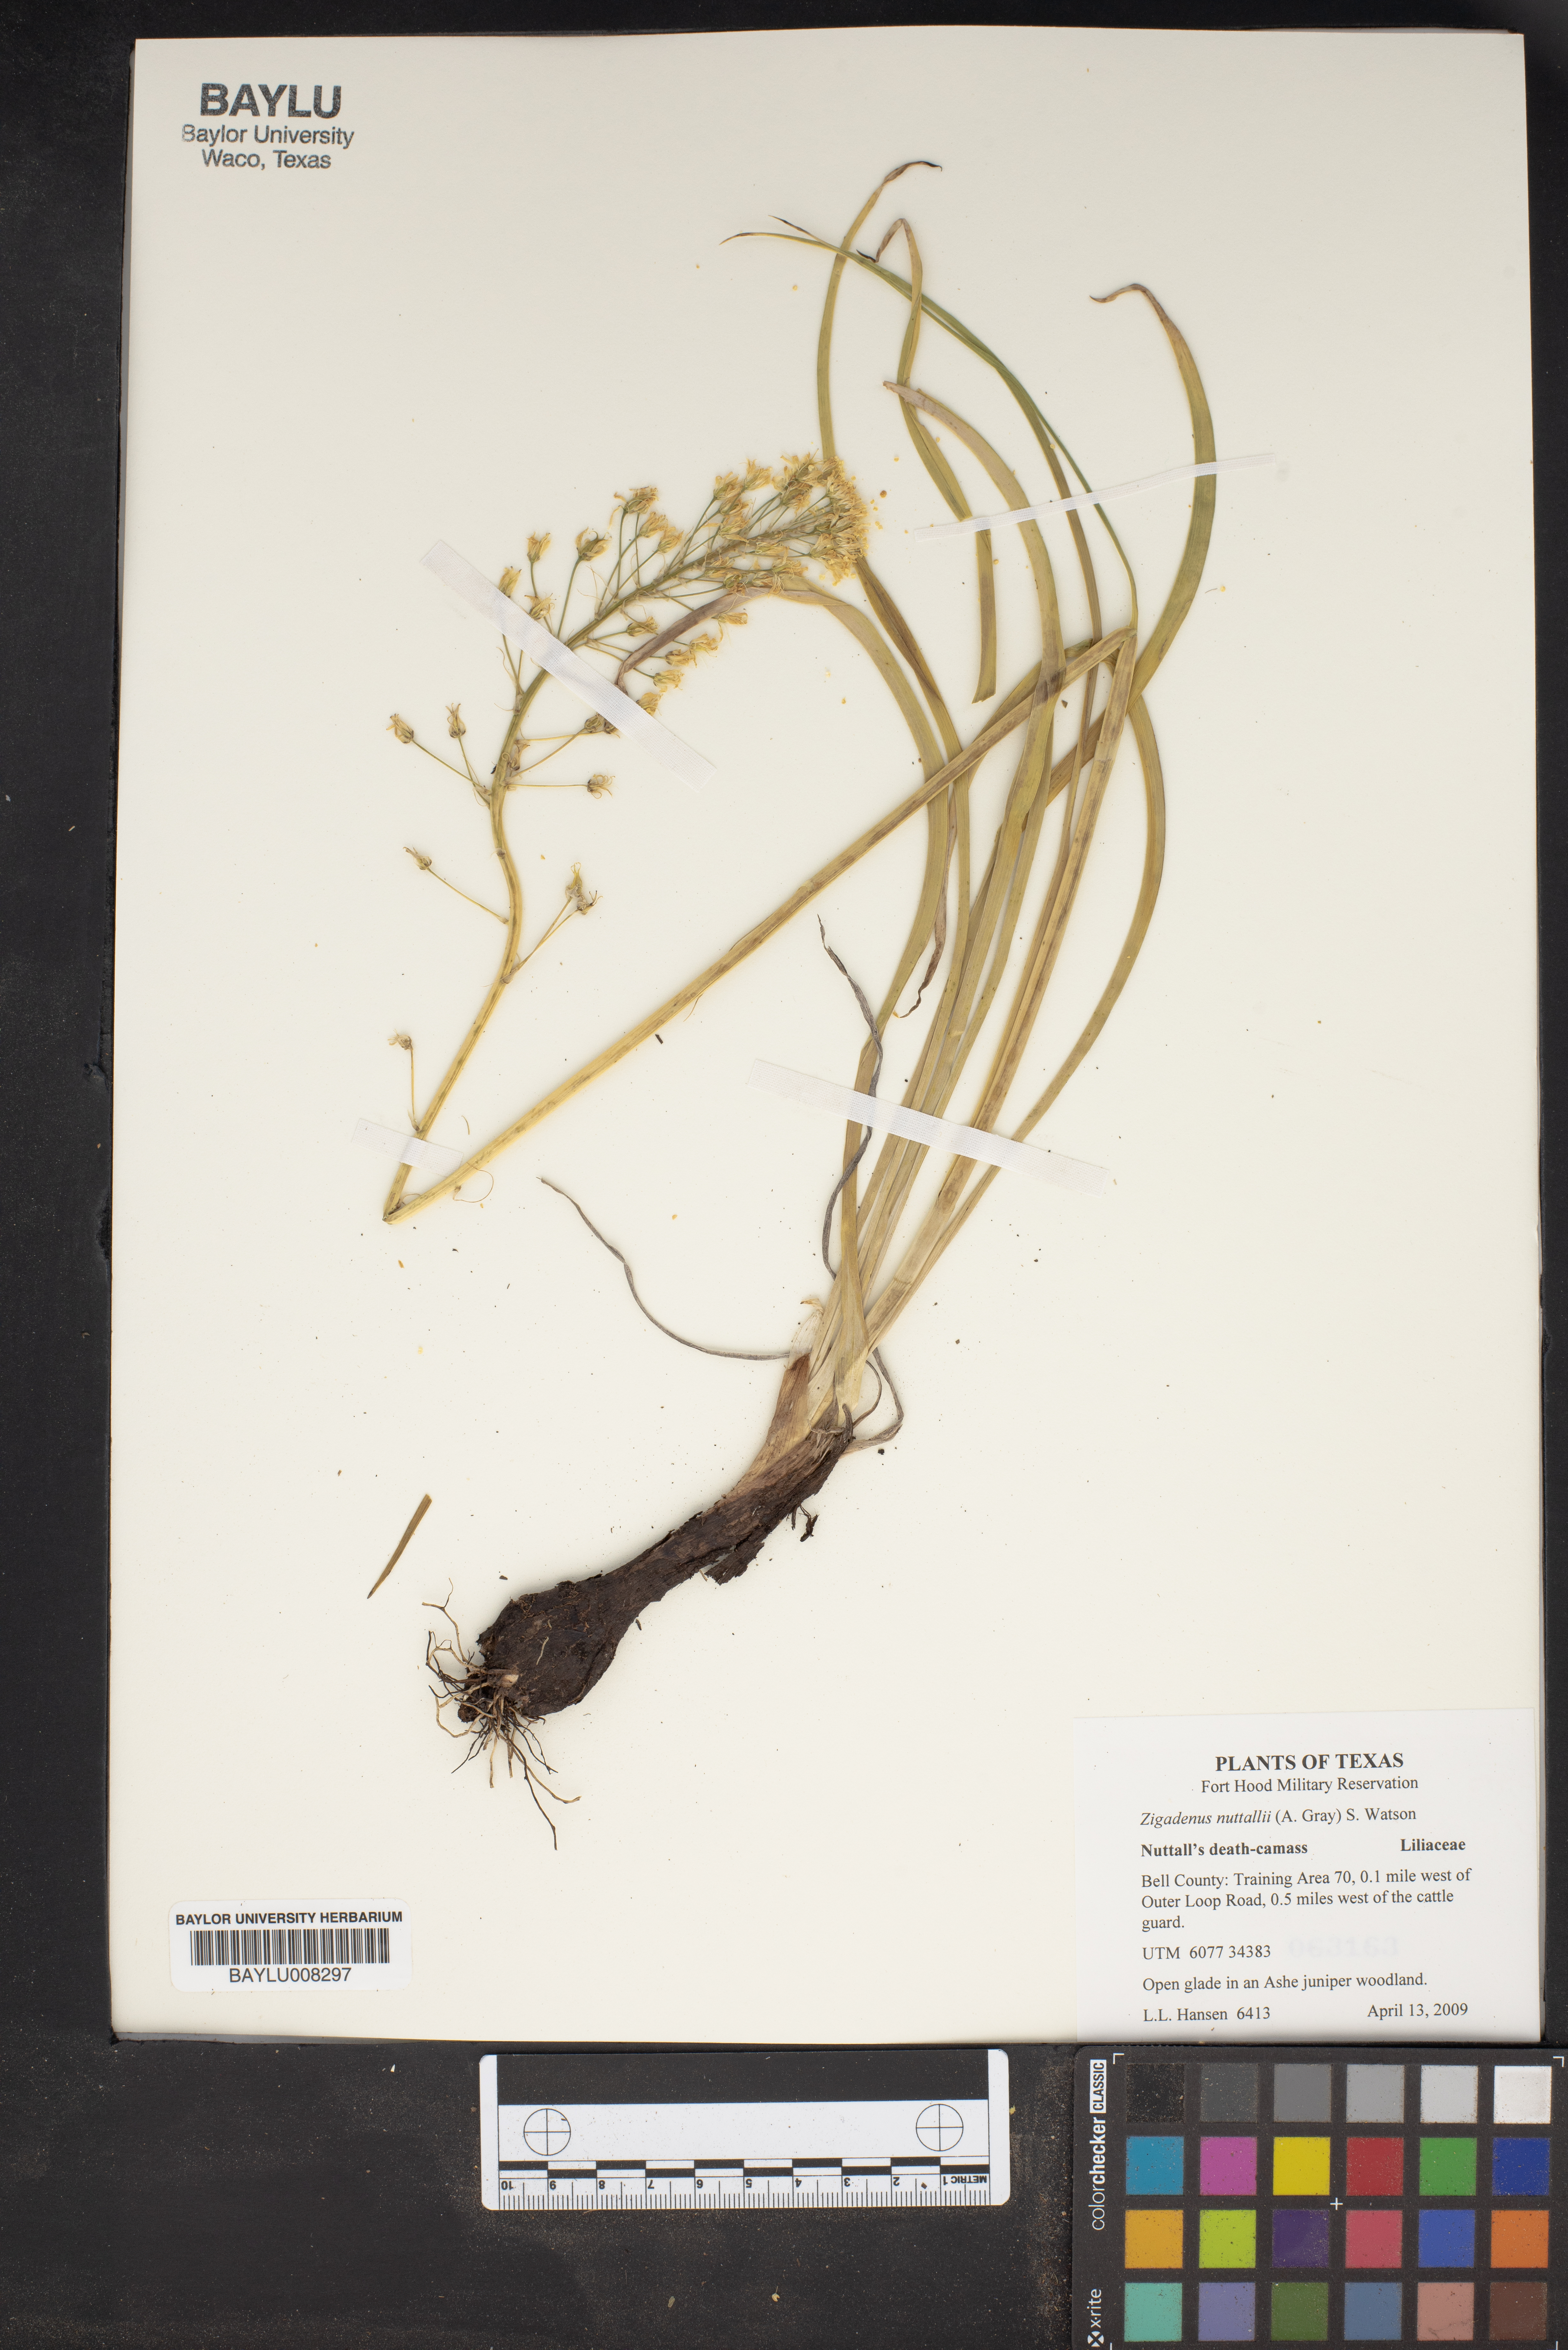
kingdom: Plantae
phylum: Tracheophyta
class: Liliopsida
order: Liliales
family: Melanthiaceae
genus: Toxicoscordion
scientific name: Toxicoscordion nuttallii
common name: Poison sego
